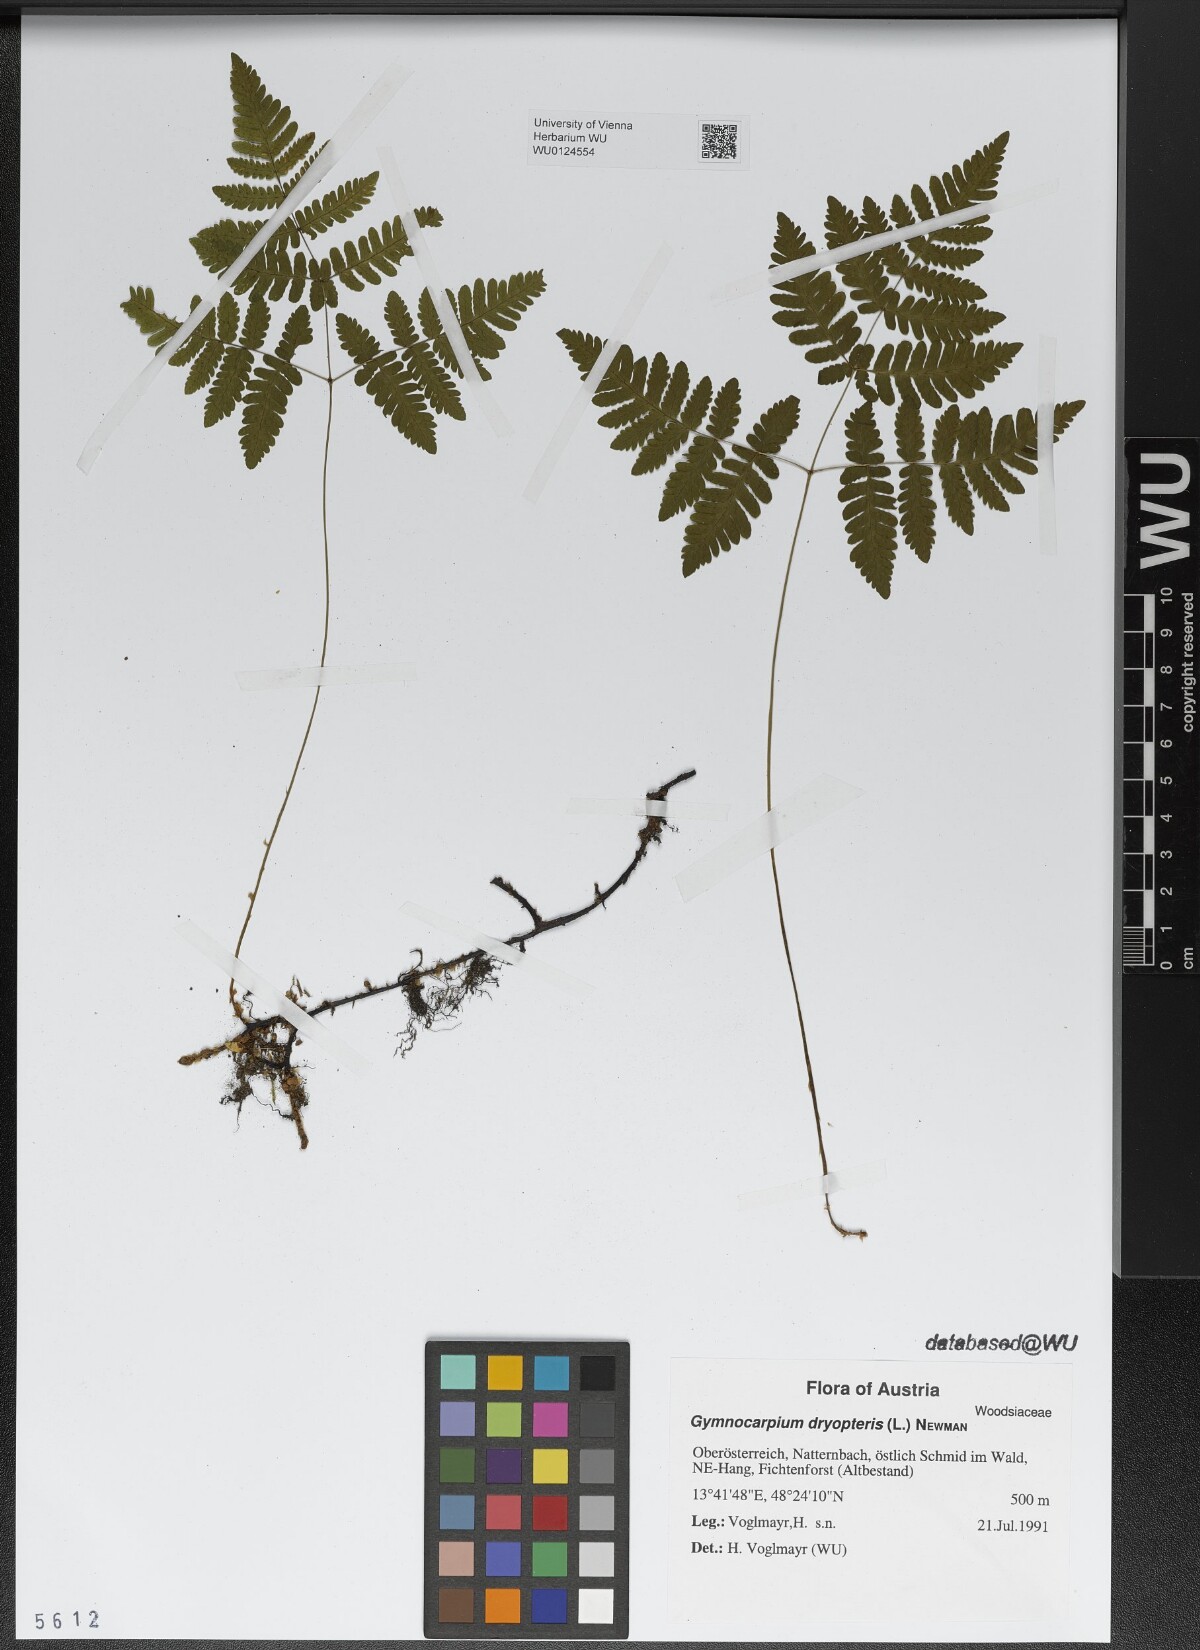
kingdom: Plantae
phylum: Tracheophyta
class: Polypodiopsida
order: Polypodiales
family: Cystopteridaceae
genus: Gymnocarpium
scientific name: Gymnocarpium dryopteris
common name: Oak fern
